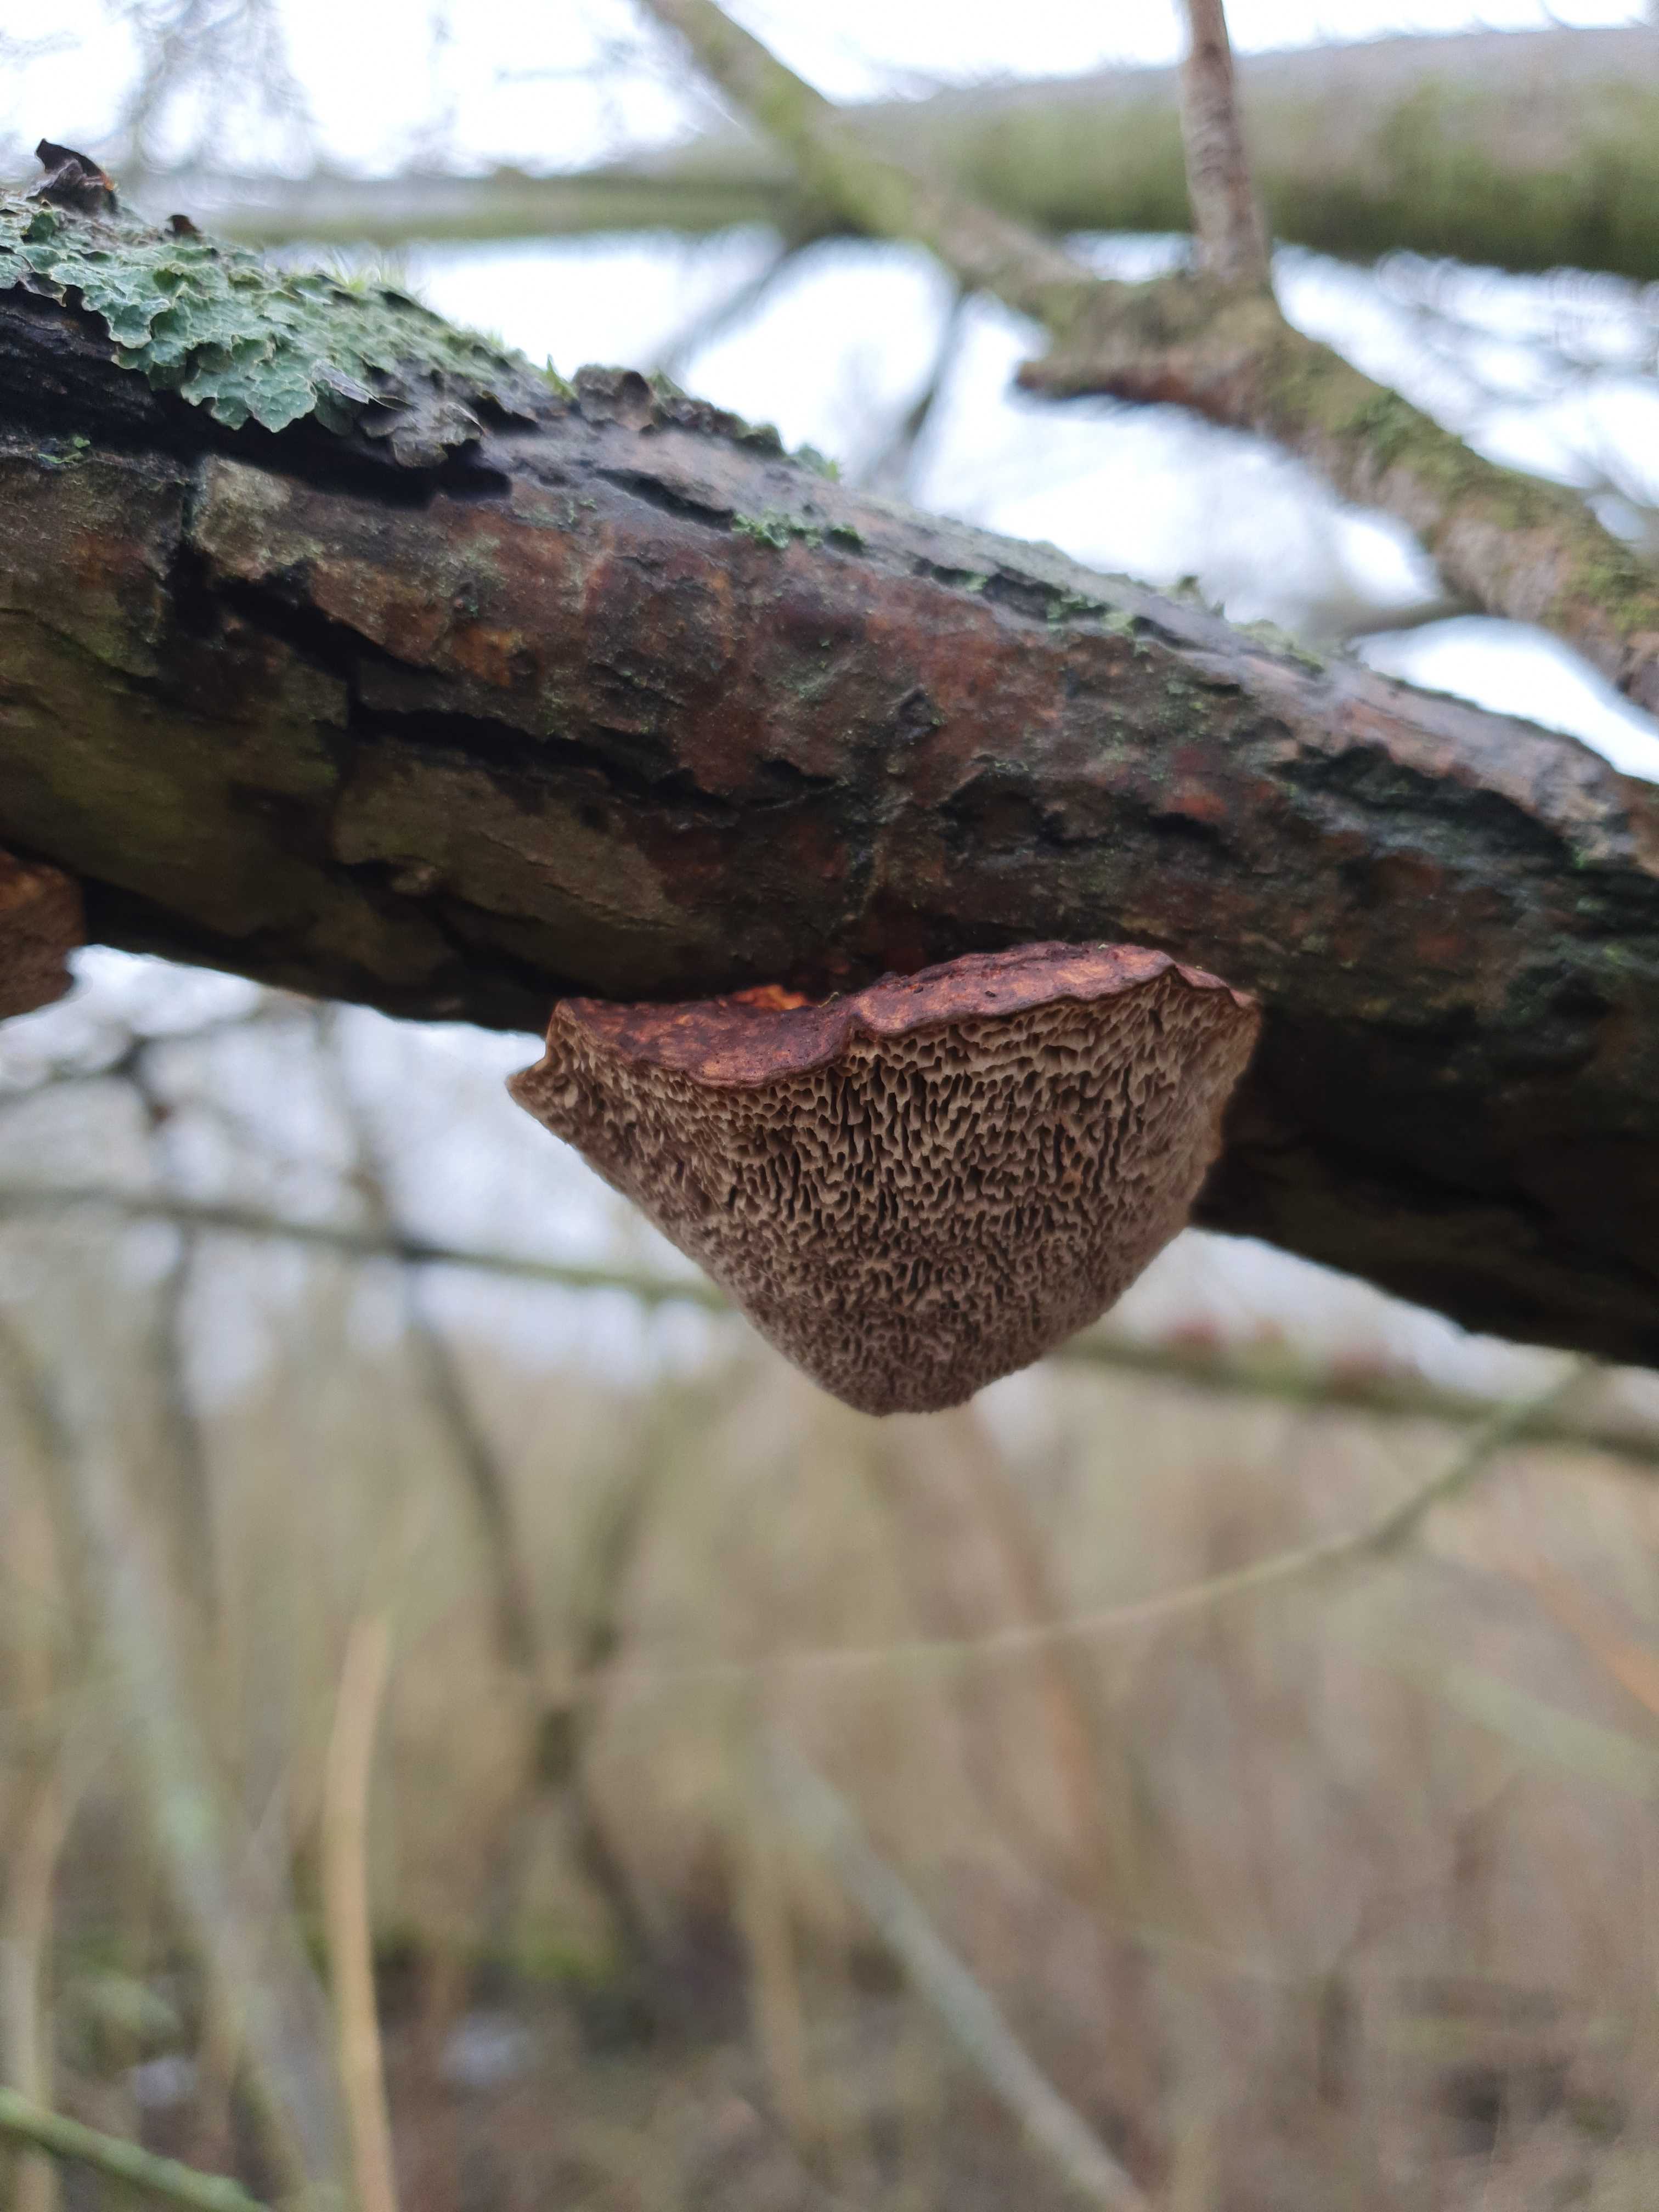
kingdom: Fungi
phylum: Basidiomycota
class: Agaricomycetes
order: Polyporales
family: Polyporaceae
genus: Daedaleopsis
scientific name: Daedaleopsis confragosa
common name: rødmende læderporesvamp
